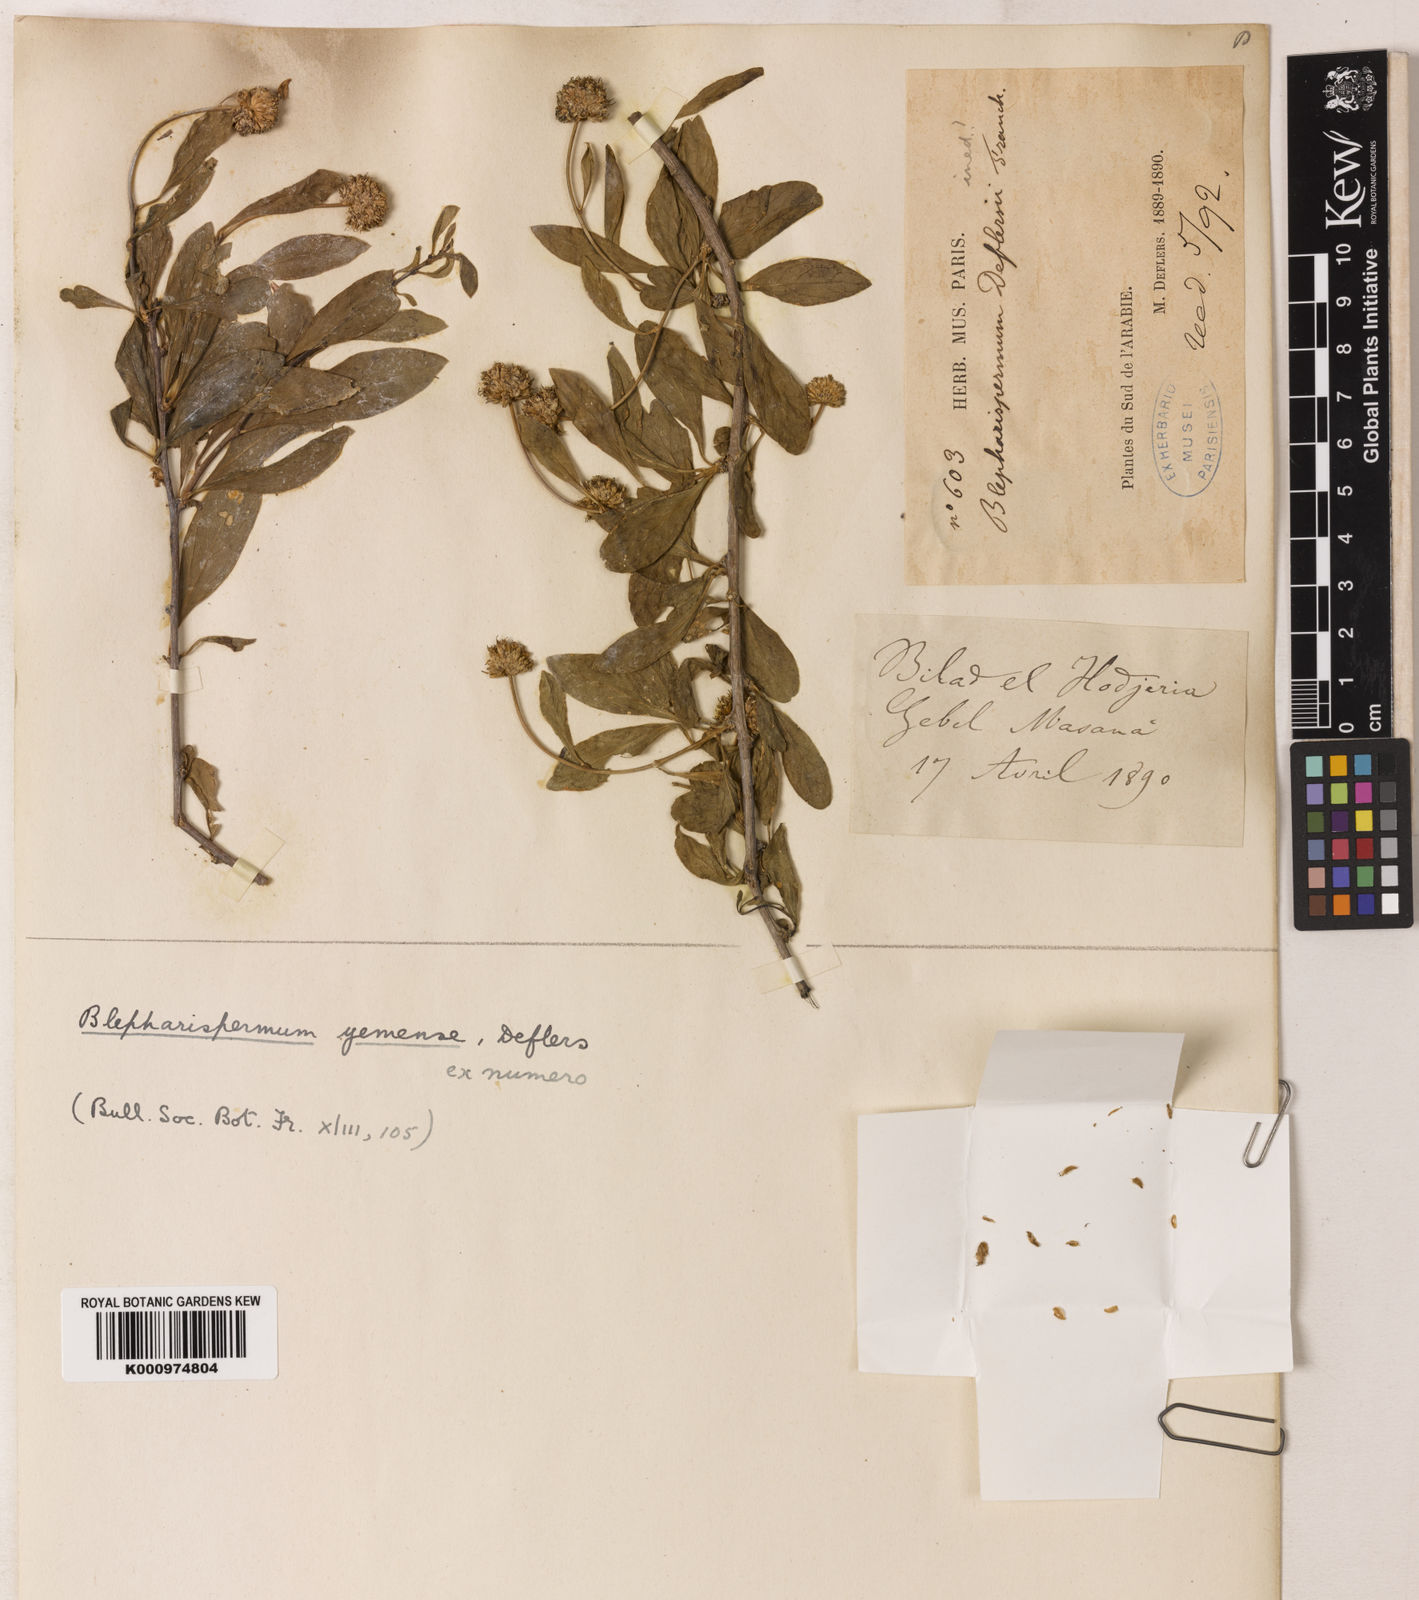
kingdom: Plantae
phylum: Tracheophyta
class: Magnoliopsida
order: Asterales
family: Asteraceae
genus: Blepharispermum
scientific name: Blepharispermum yemense
